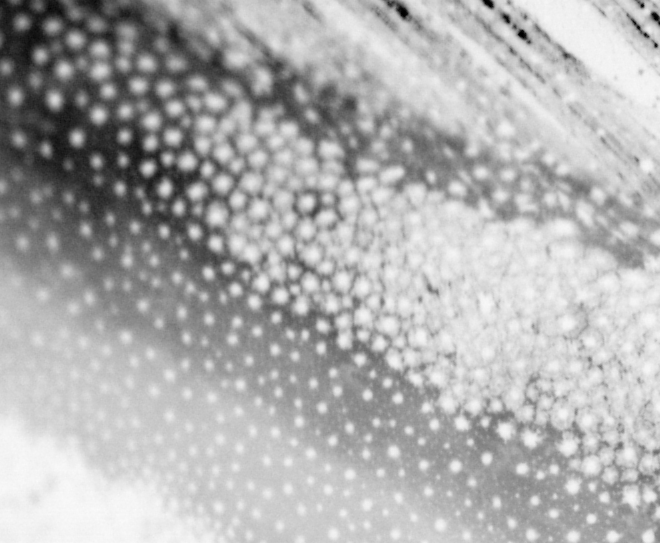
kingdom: Animalia
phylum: Chordata
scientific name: Chordata
